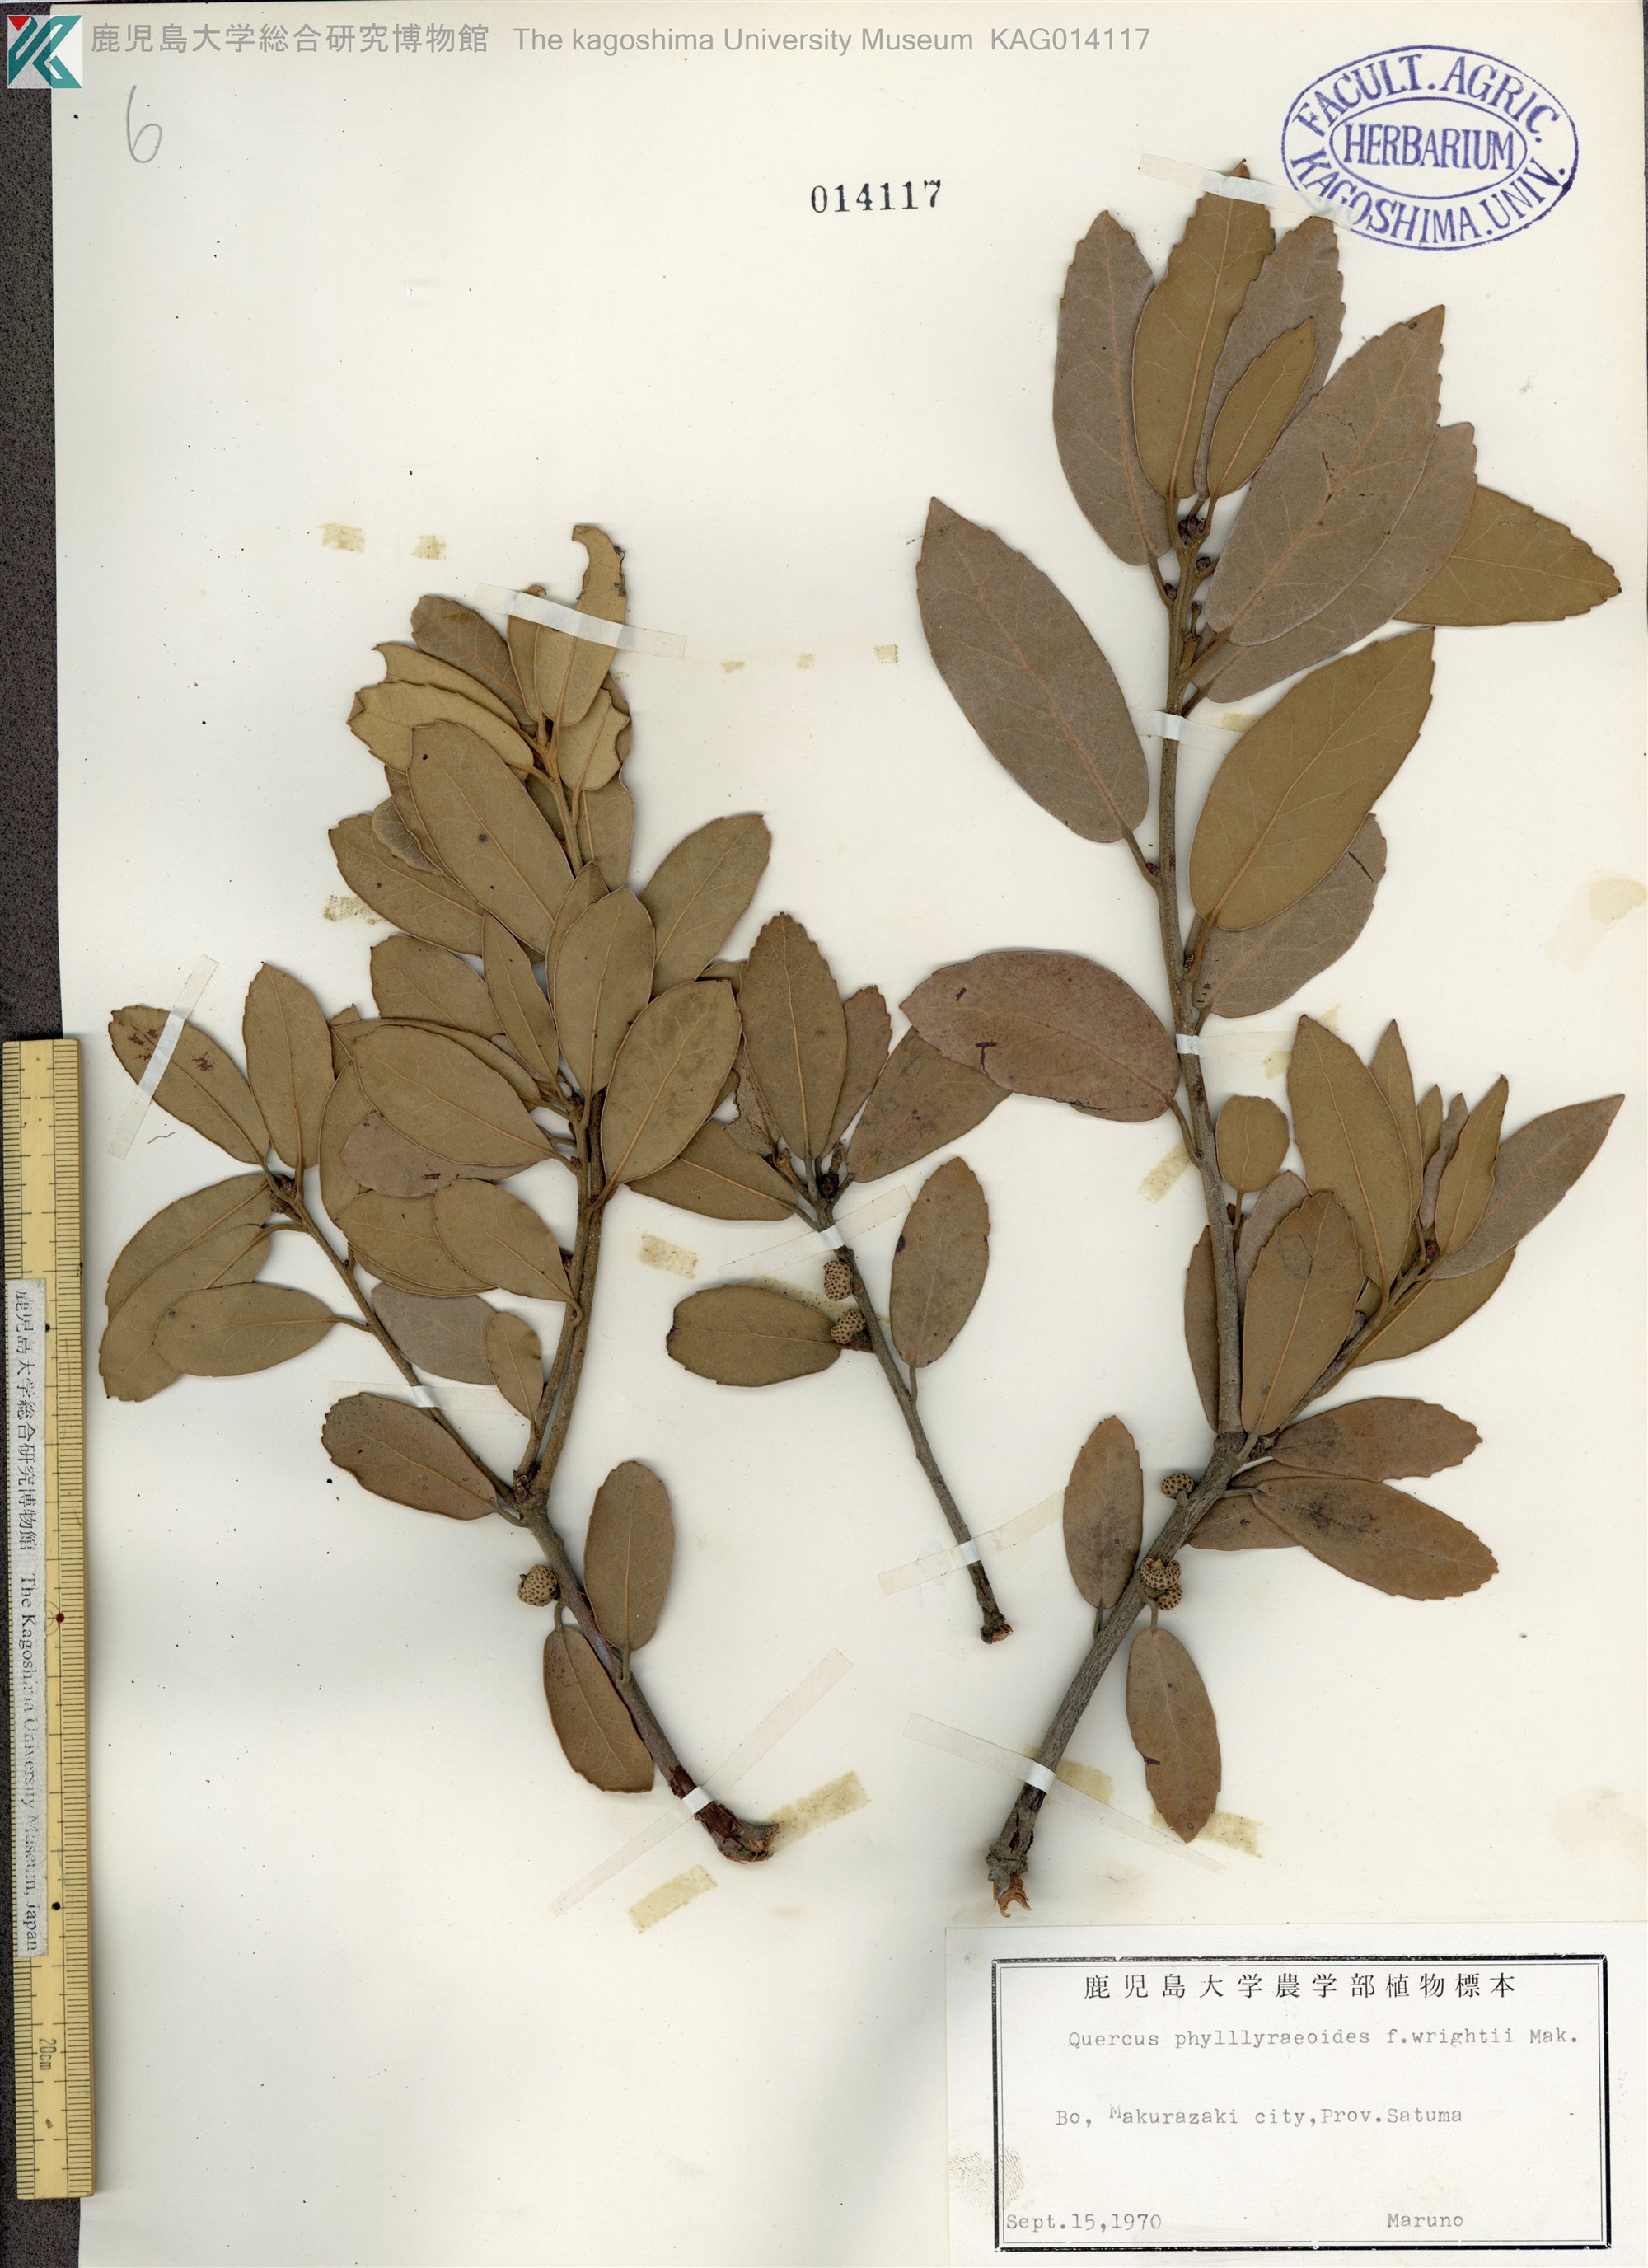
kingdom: Plantae
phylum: Tracheophyta
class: Magnoliopsida
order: Fagales
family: Fagaceae
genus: Quercus
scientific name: Quercus phillyreoides
